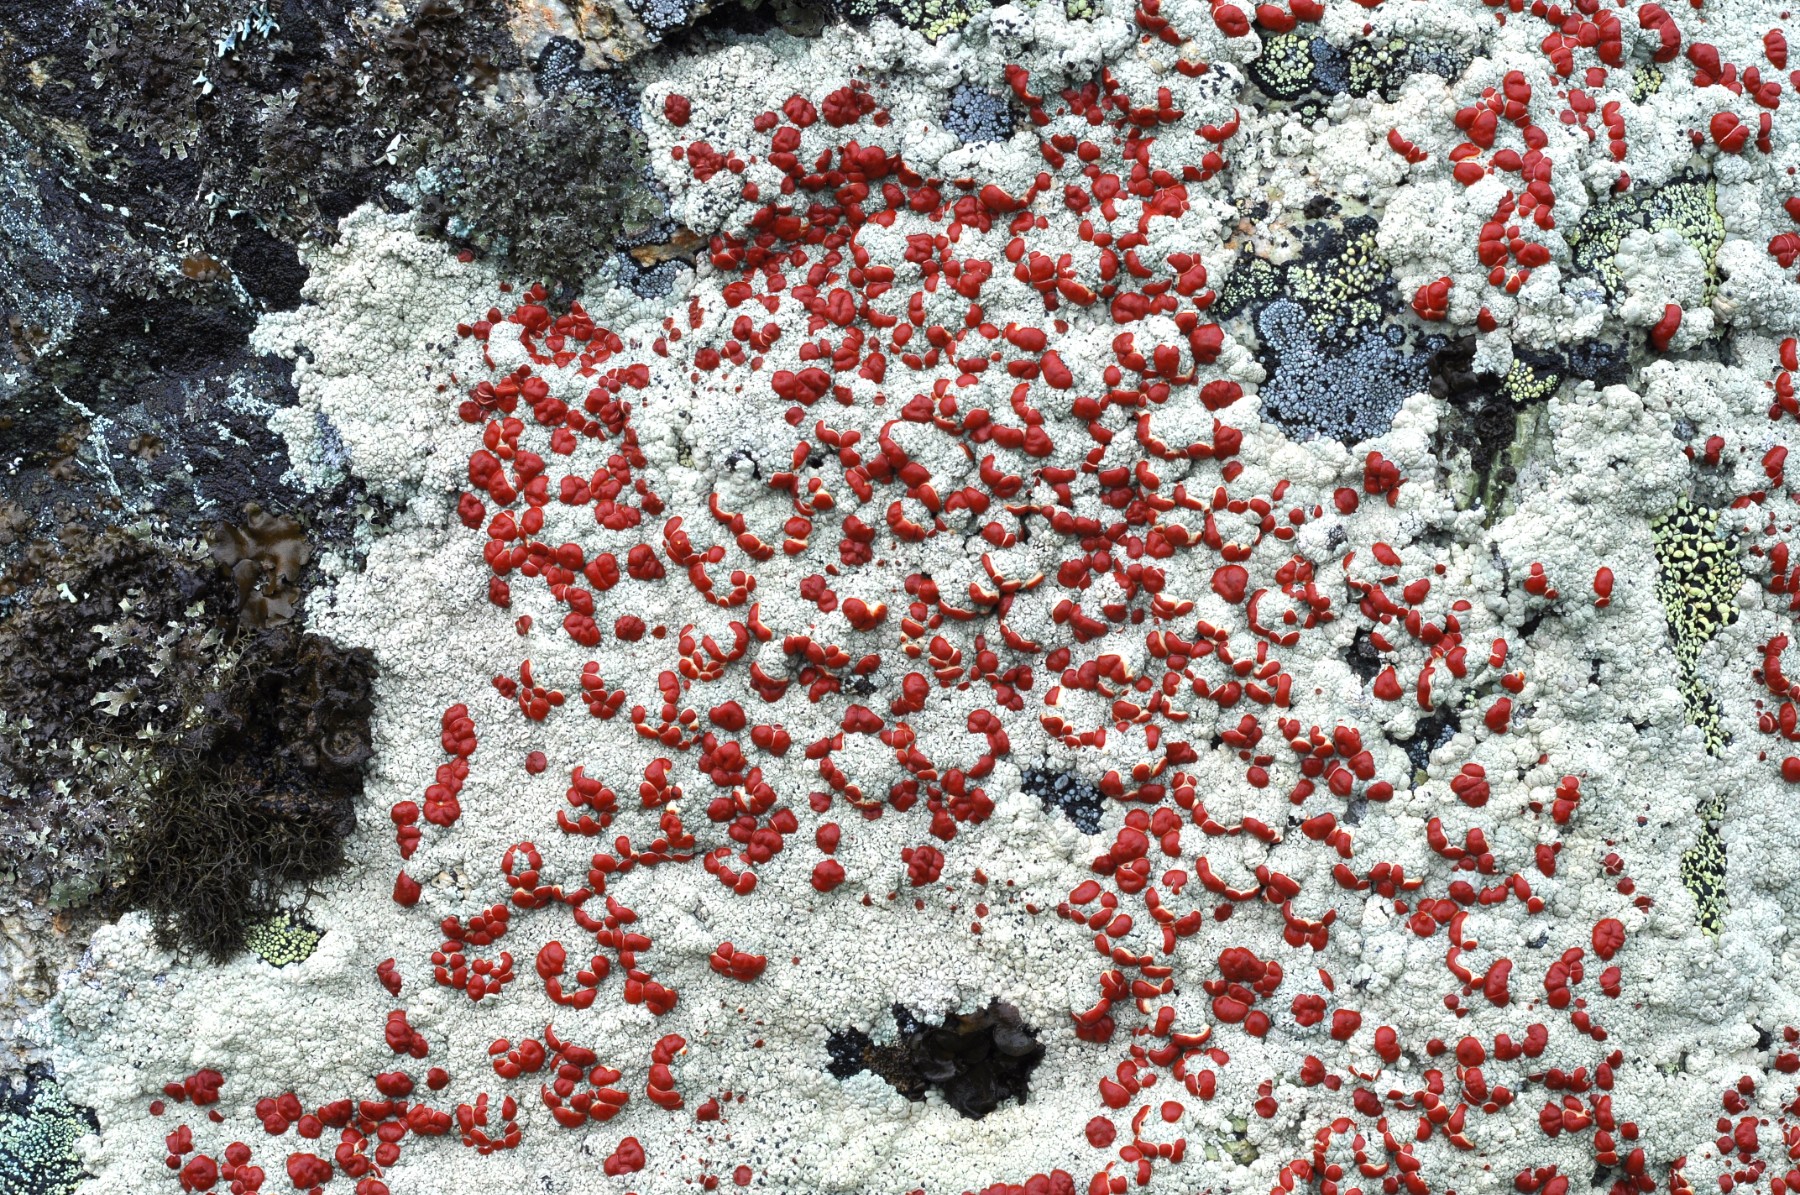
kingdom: Fungi
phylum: Ascomycota
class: Lecanoromycetes
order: Umbilicariales
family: Ophioparmaceae
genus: Ophioparma
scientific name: Ophioparma ventosa
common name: fjeld-blodøjelav
